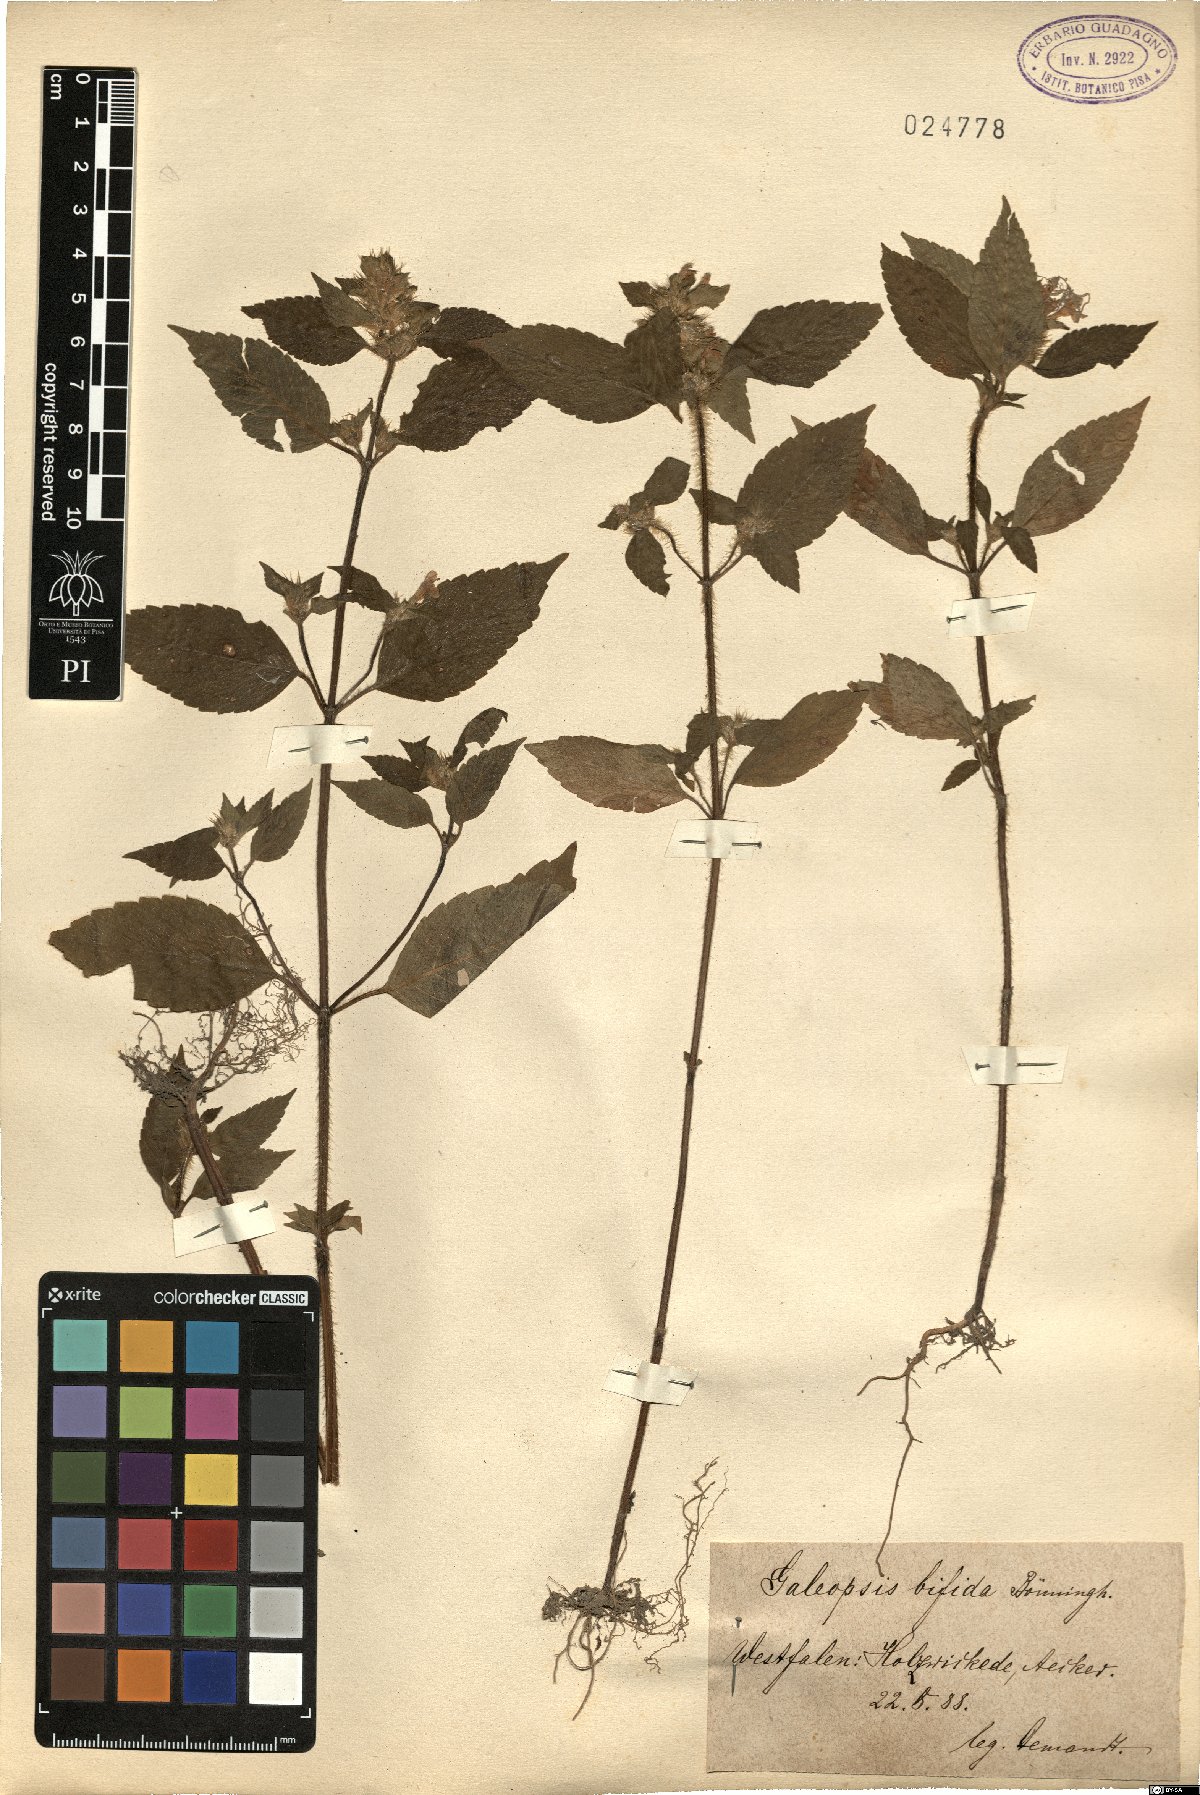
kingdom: Plantae
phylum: Tracheophyta
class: Magnoliopsida
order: Lamiales
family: Lamiaceae
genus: Galeopsis
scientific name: Galeopsis bifida
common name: Bifid hemp-nettle
